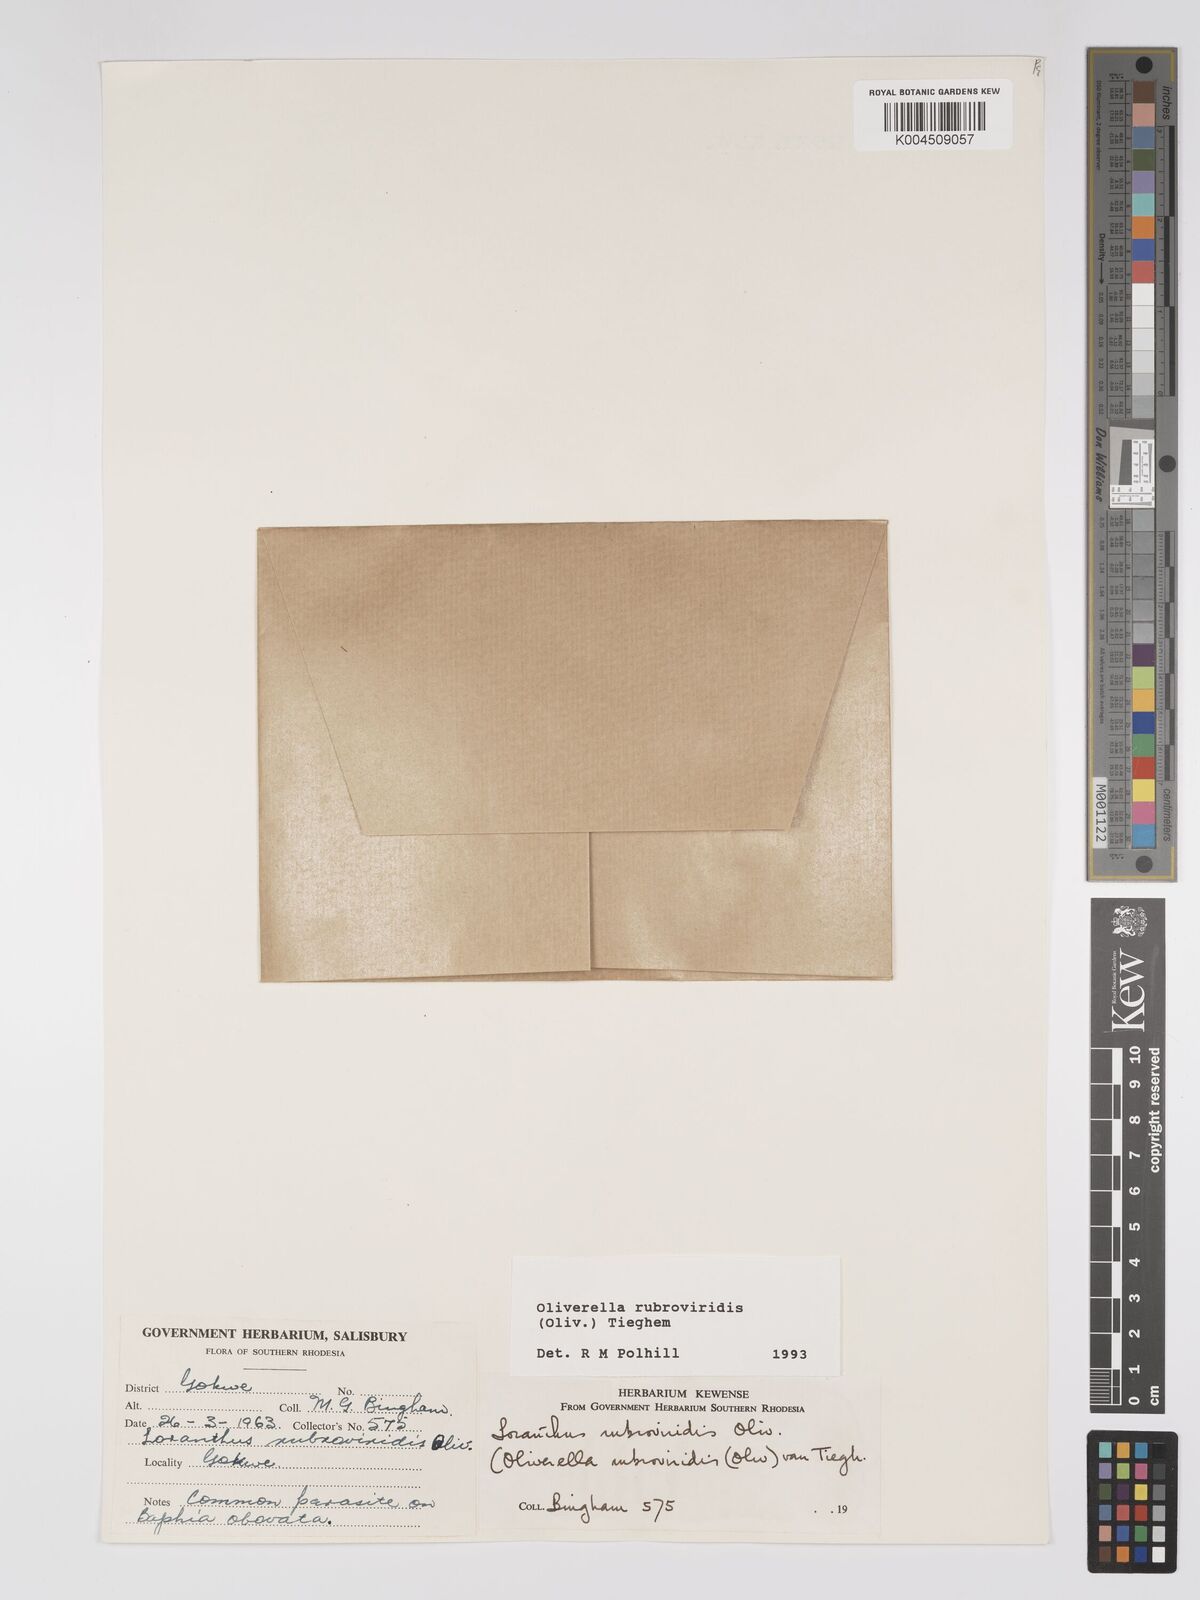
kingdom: Plantae
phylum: Tracheophyta
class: Magnoliopsida
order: Santalales
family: Loranthaceae
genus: Oliverella
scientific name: Oliverella rubroviridis
